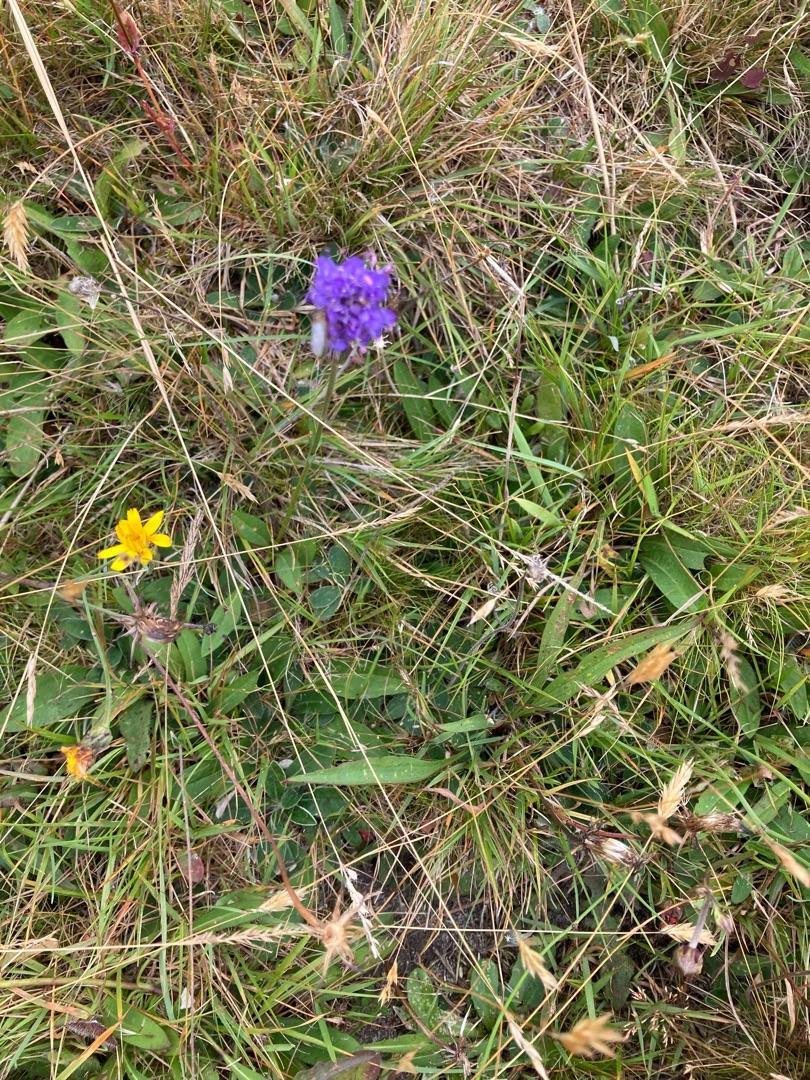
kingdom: Plantae
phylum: Tracheophyta
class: Magnoliopsida
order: Dipsacales
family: Caprifoliaceae
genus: Succisa
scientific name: Succisa pratensis
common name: Djævelsbid
